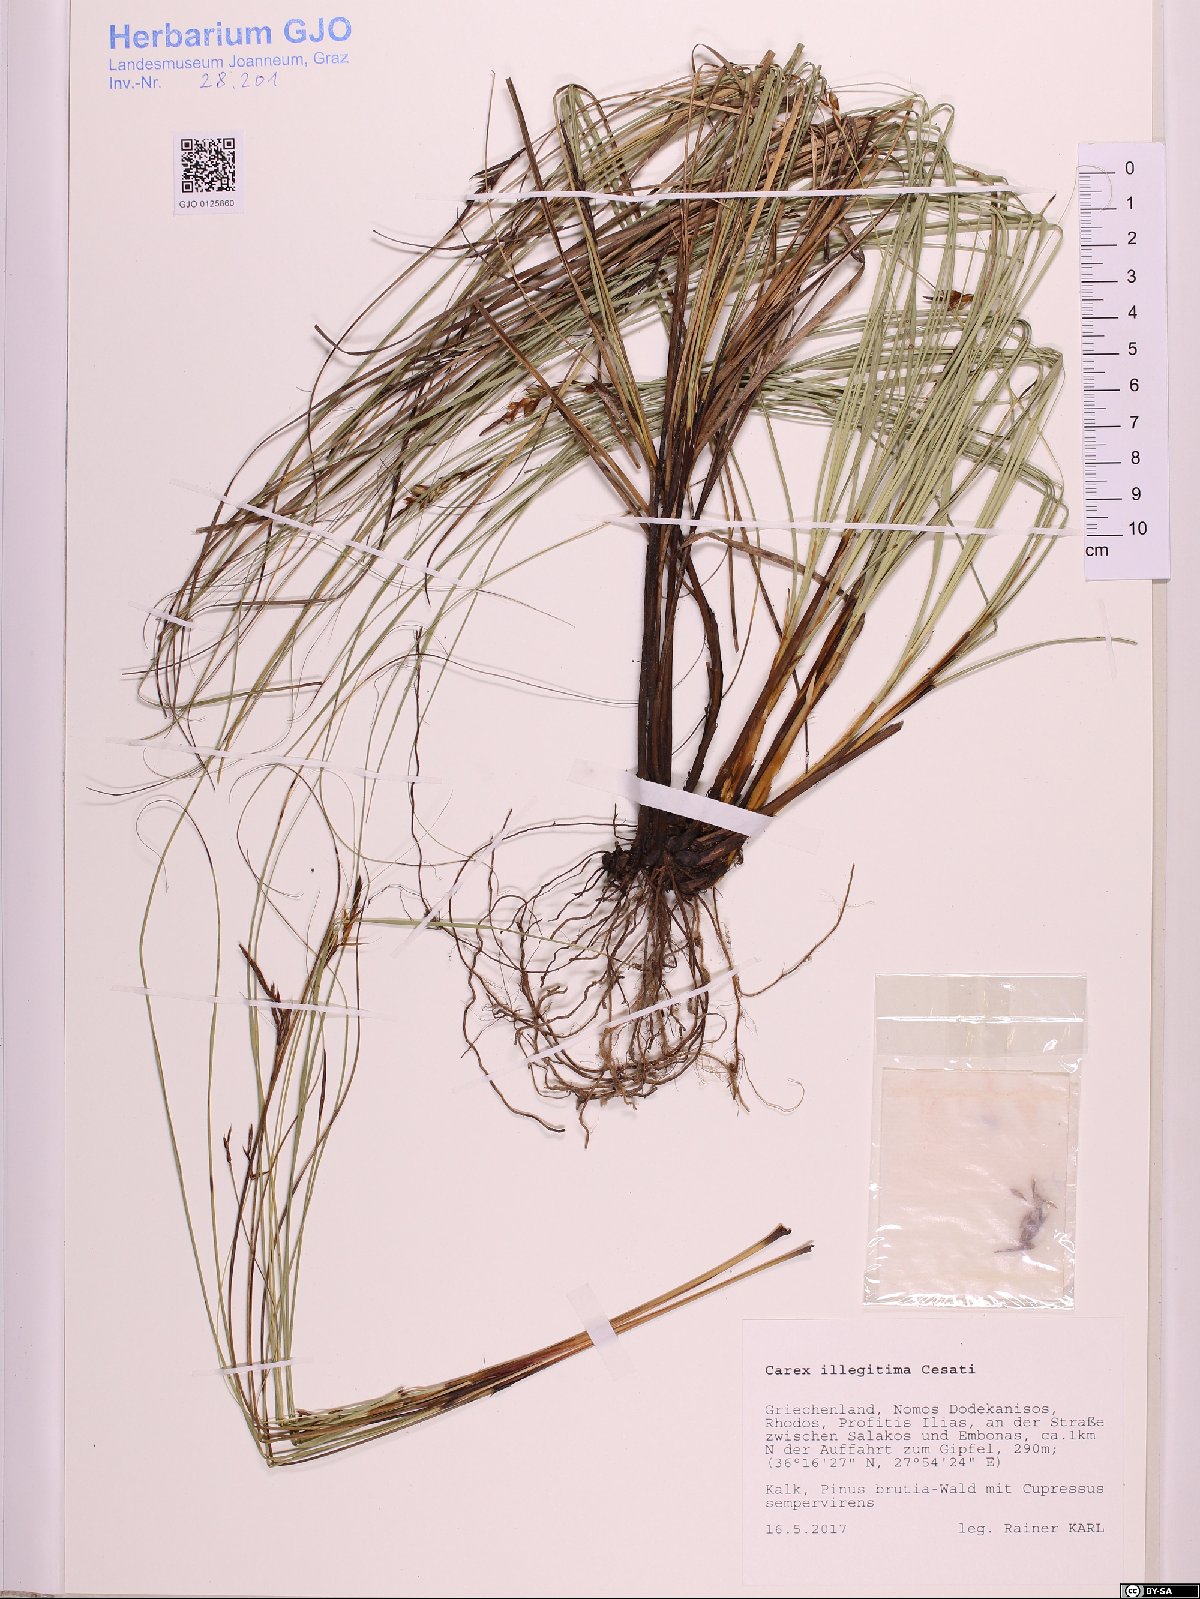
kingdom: Plantae
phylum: Tracheophyta
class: Liliopsida
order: Poales
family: Cyperaceae
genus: Carex
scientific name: Carex illegitima
